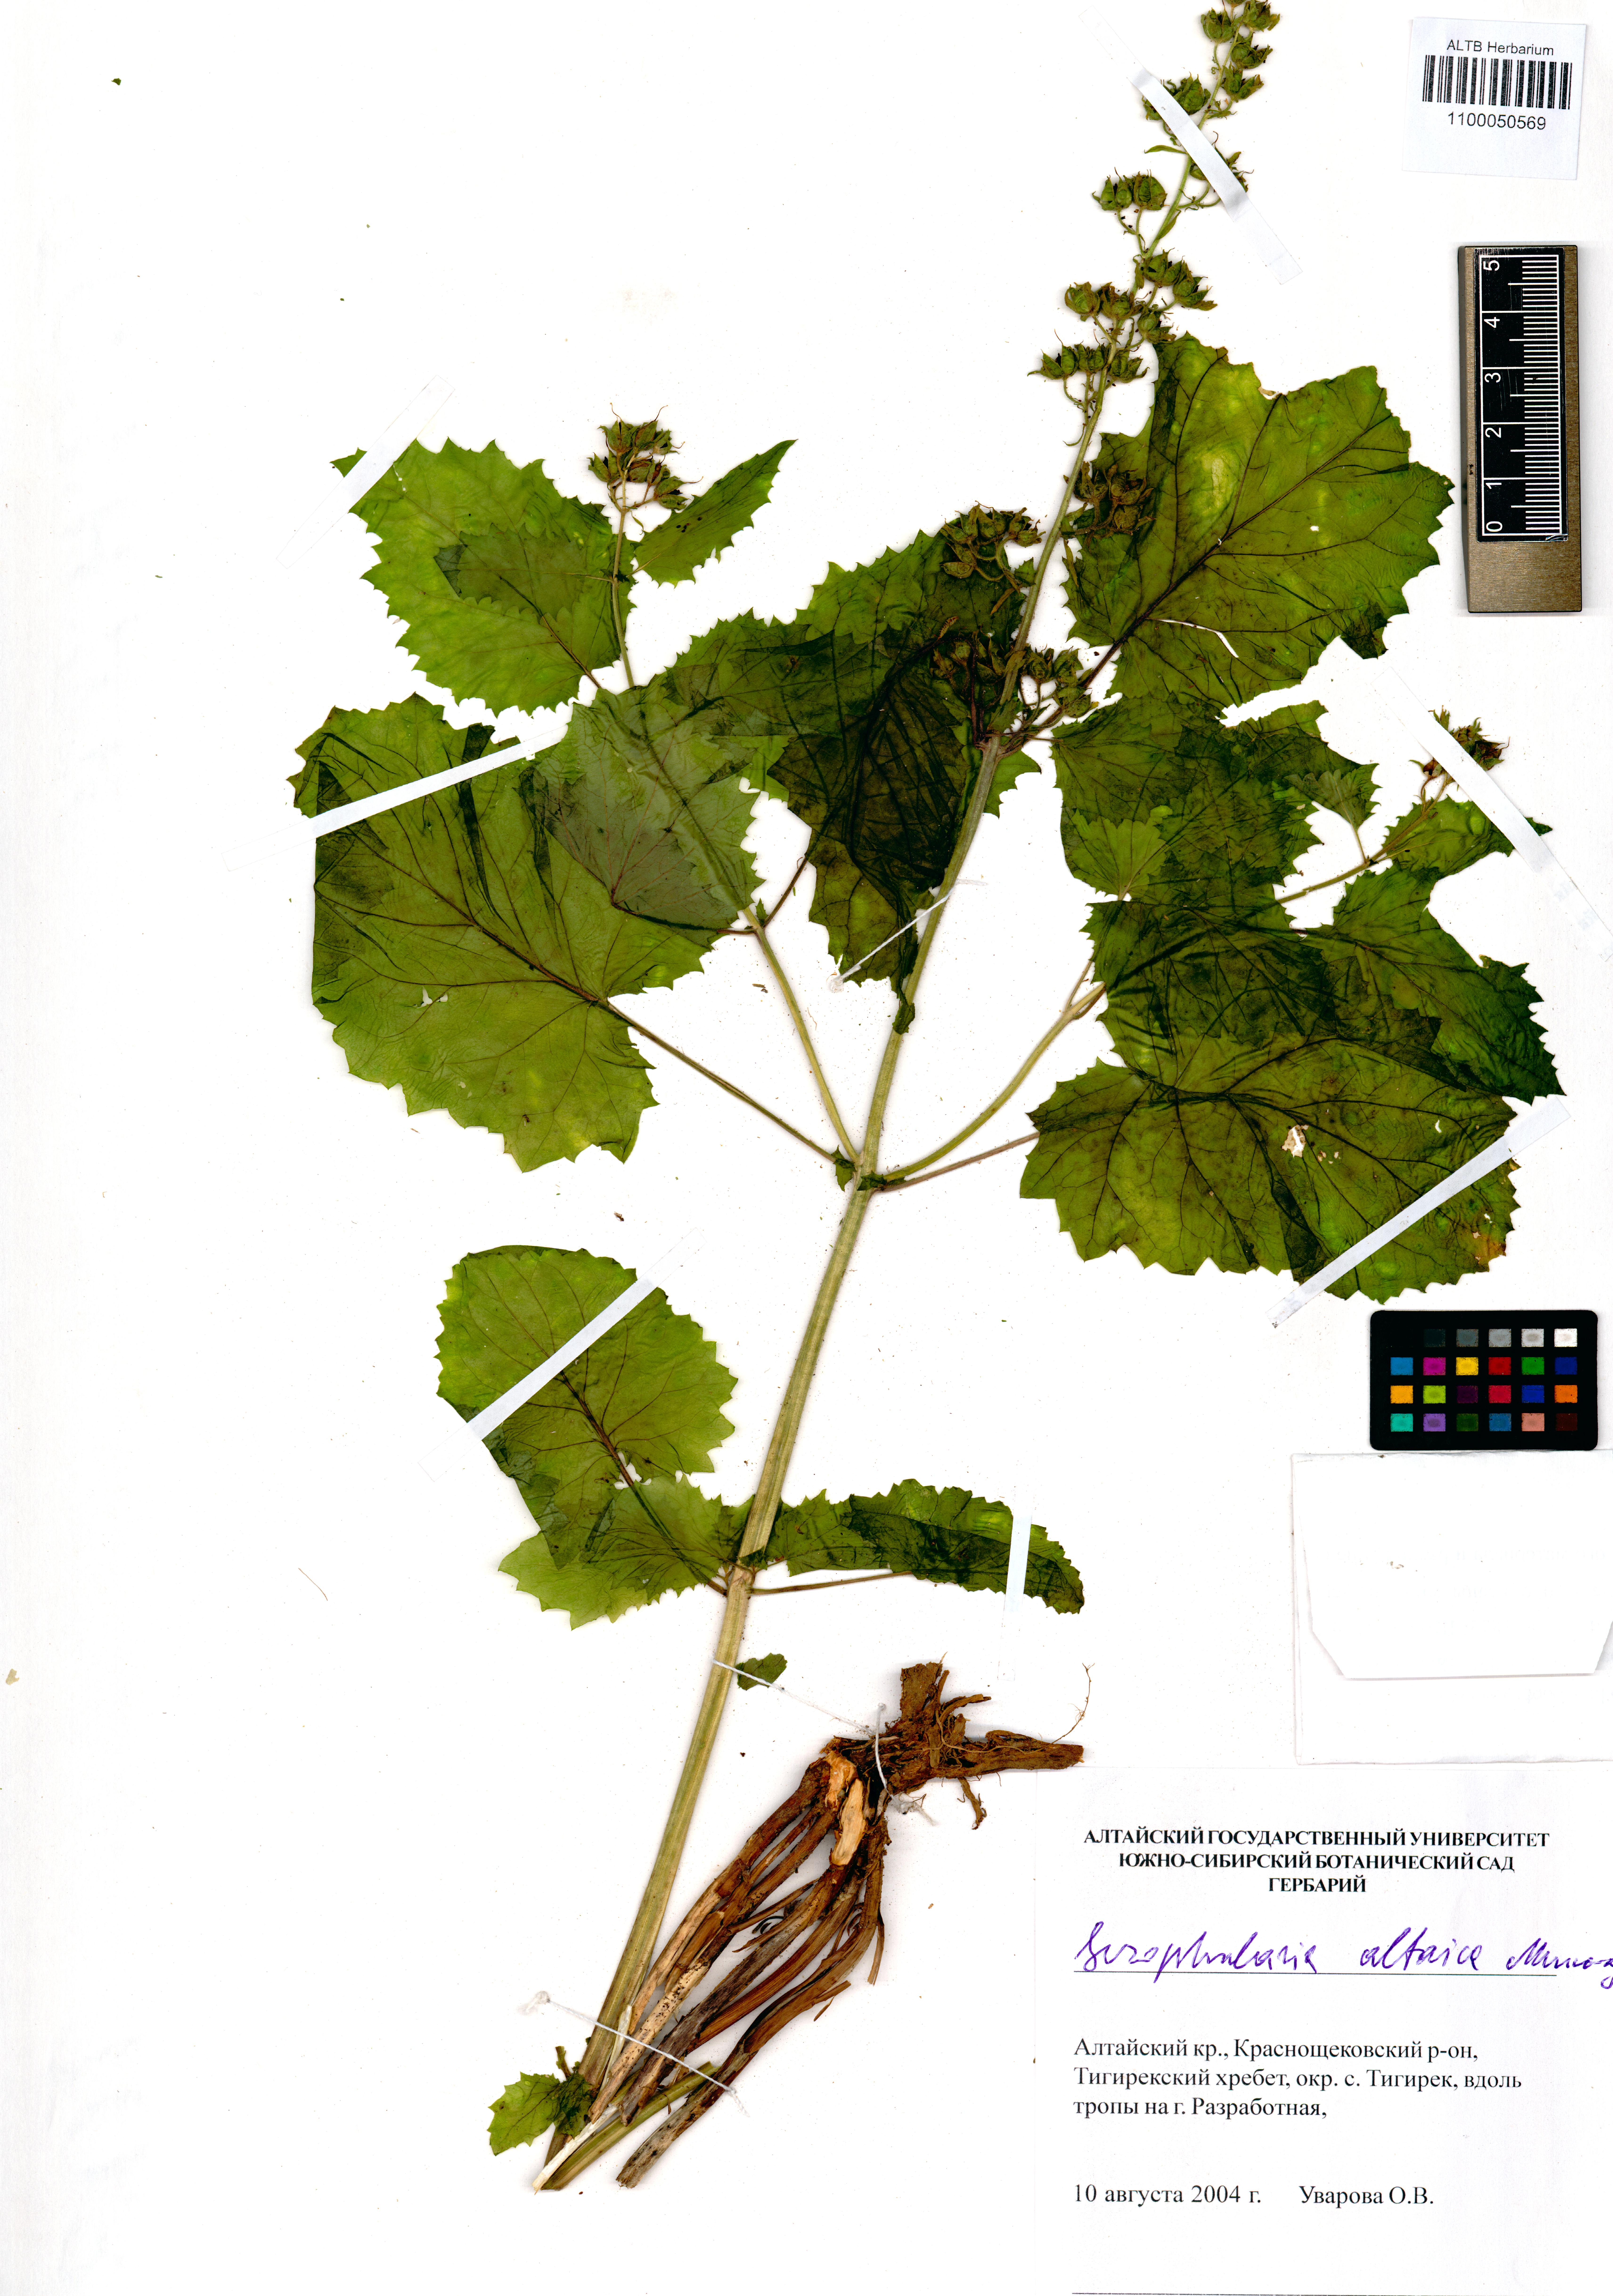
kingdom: Plantae
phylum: Tracheophyta
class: Magnoliopsida
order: Lamiales
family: Scrophulariaceae
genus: Scrophularia
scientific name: Scrophularia altaica
